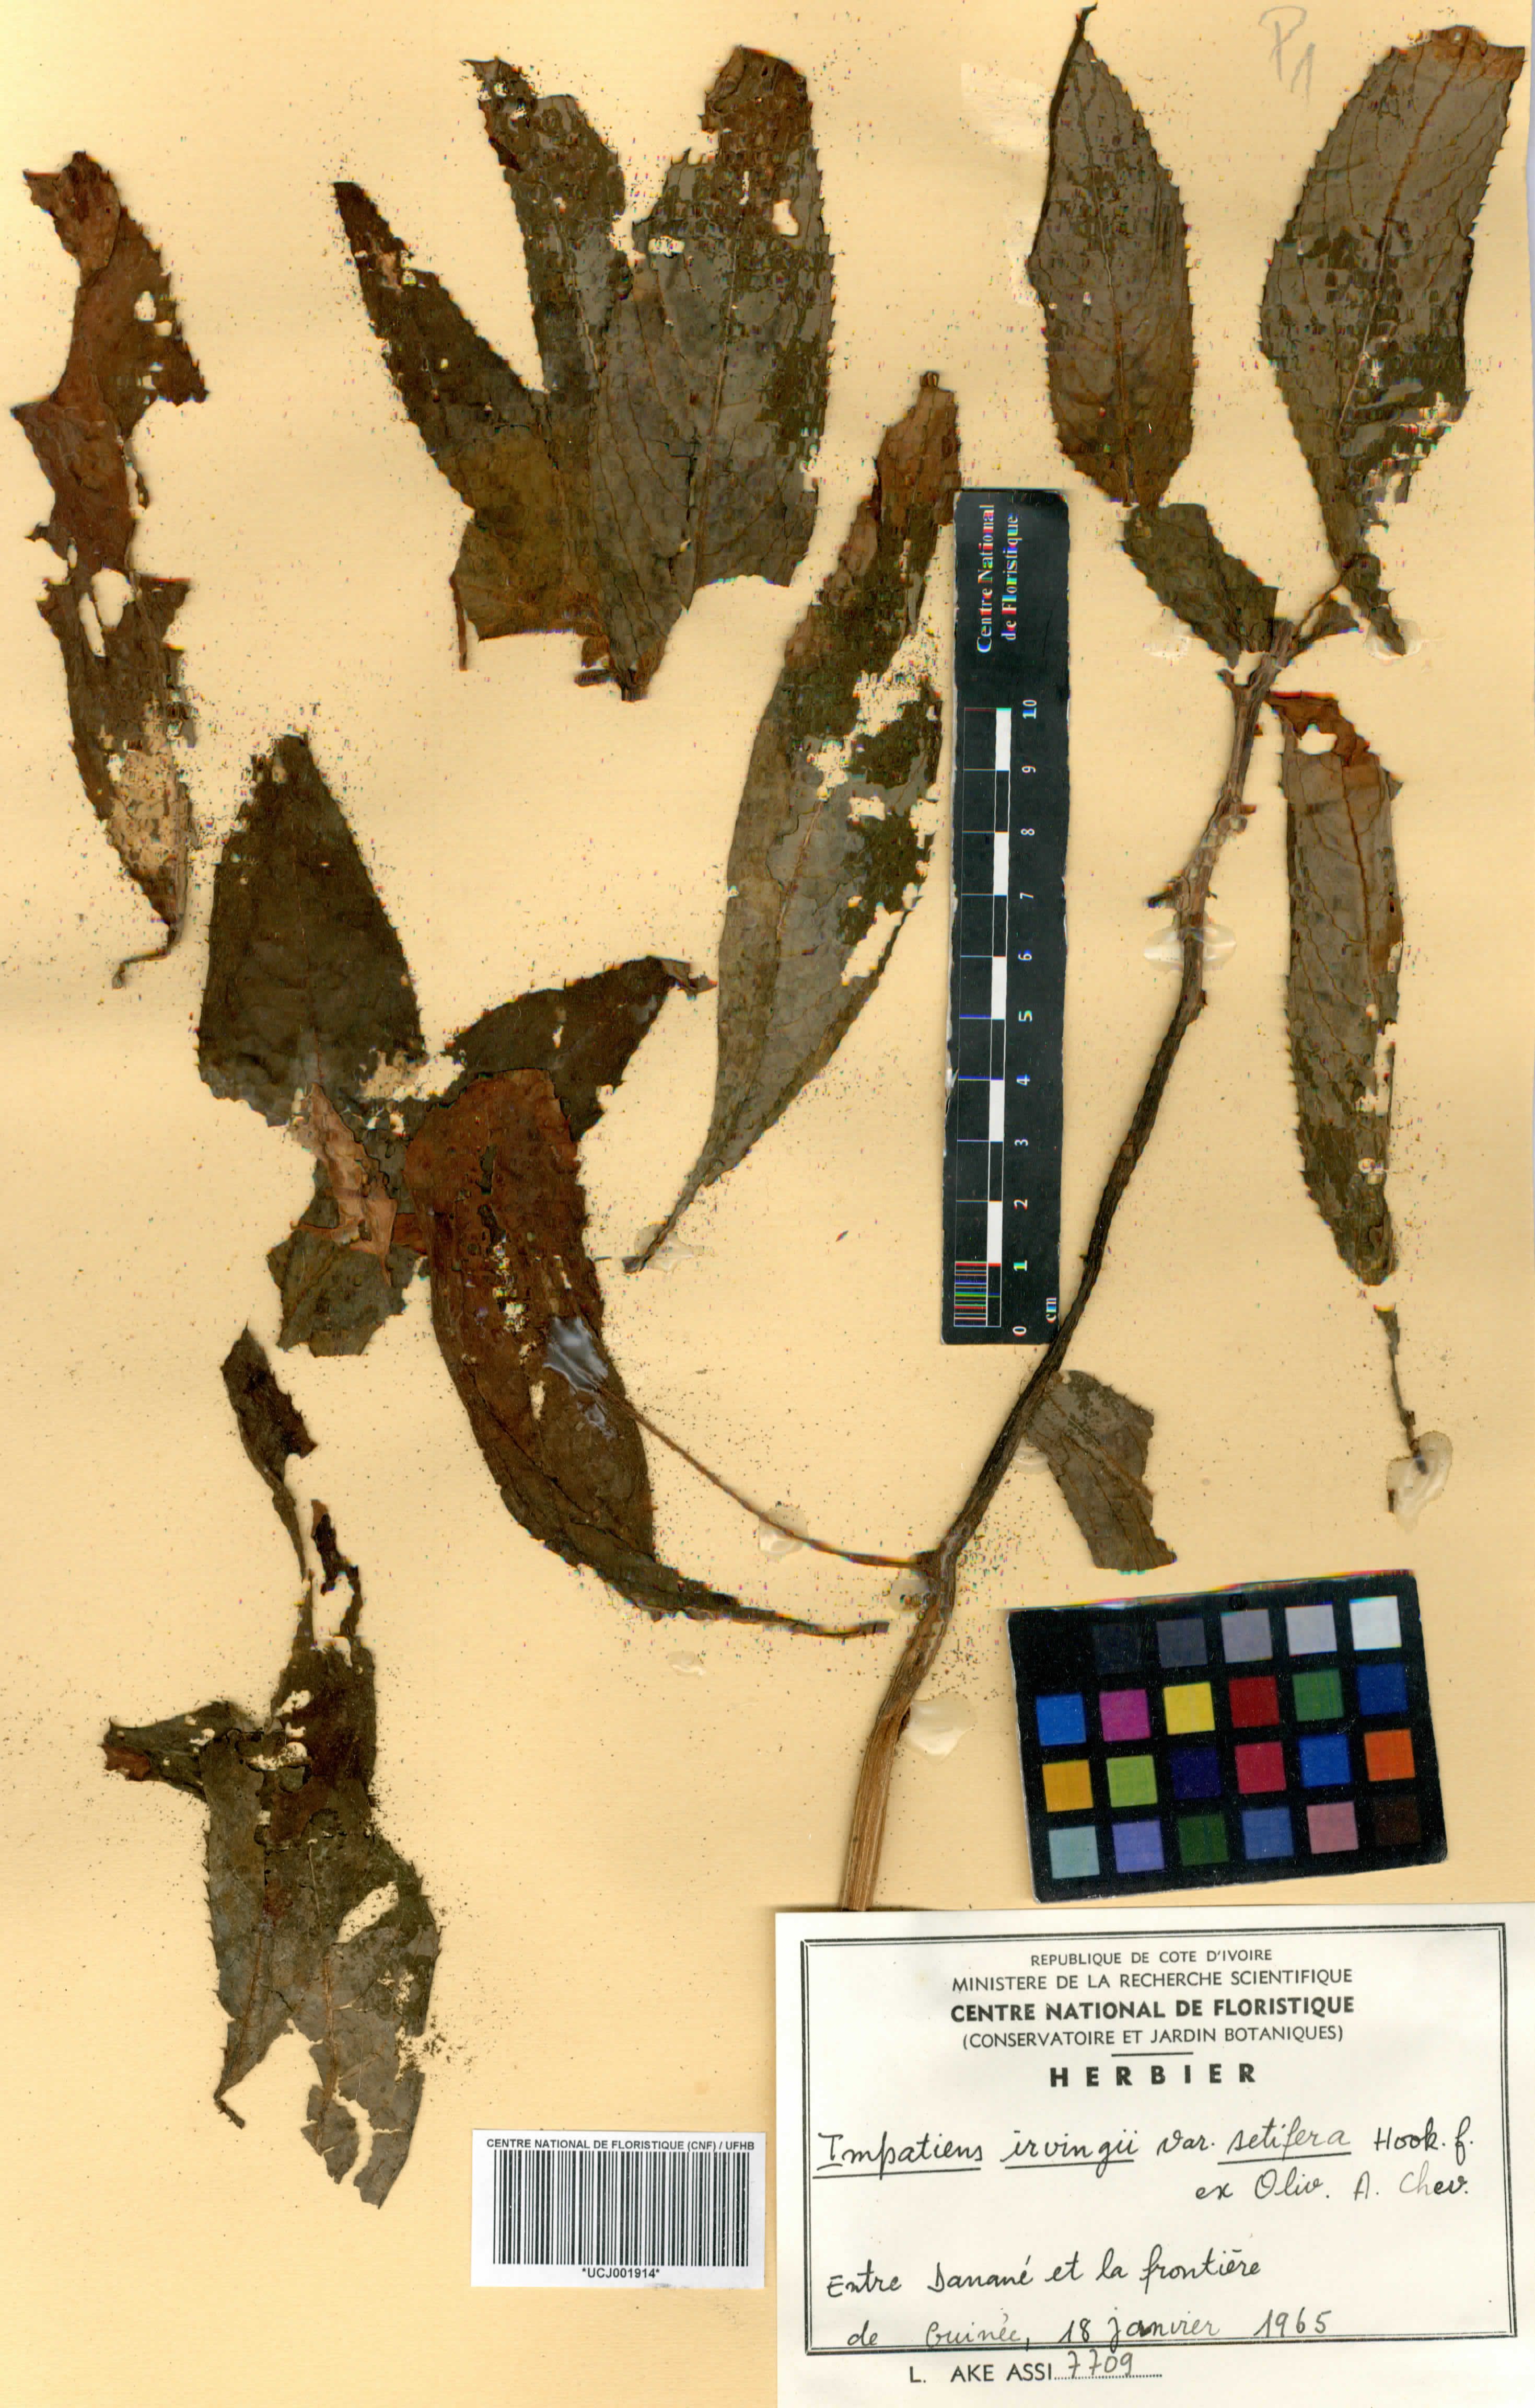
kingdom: Plantae
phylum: Tracheophyta
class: Magnoliopsida
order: Ericales
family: Balsaminaceae
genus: Impatiens
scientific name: Impatiens irvingii
